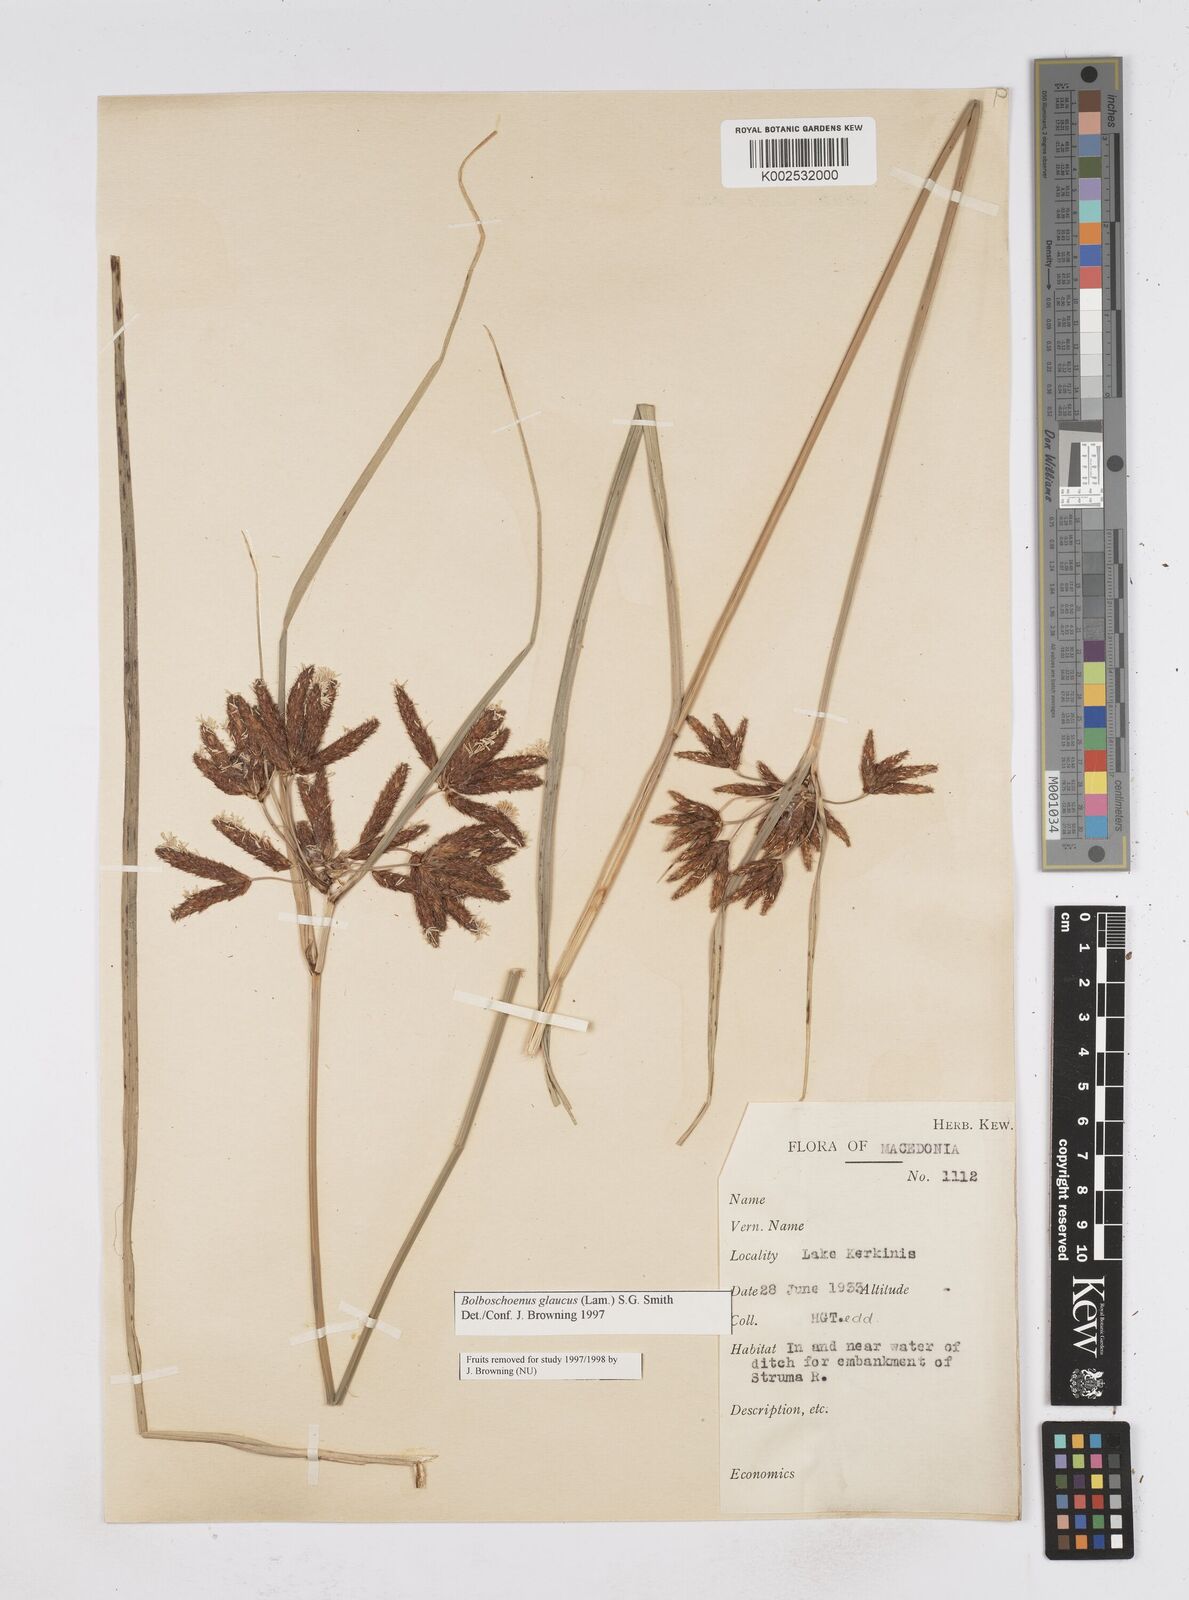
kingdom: Plantae
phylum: Tracheophyta
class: Liliopsida
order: Poales
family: Cyperaceae
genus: Bolboschoenus
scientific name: Bolboschoenus maritimus
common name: Sea club-rush
